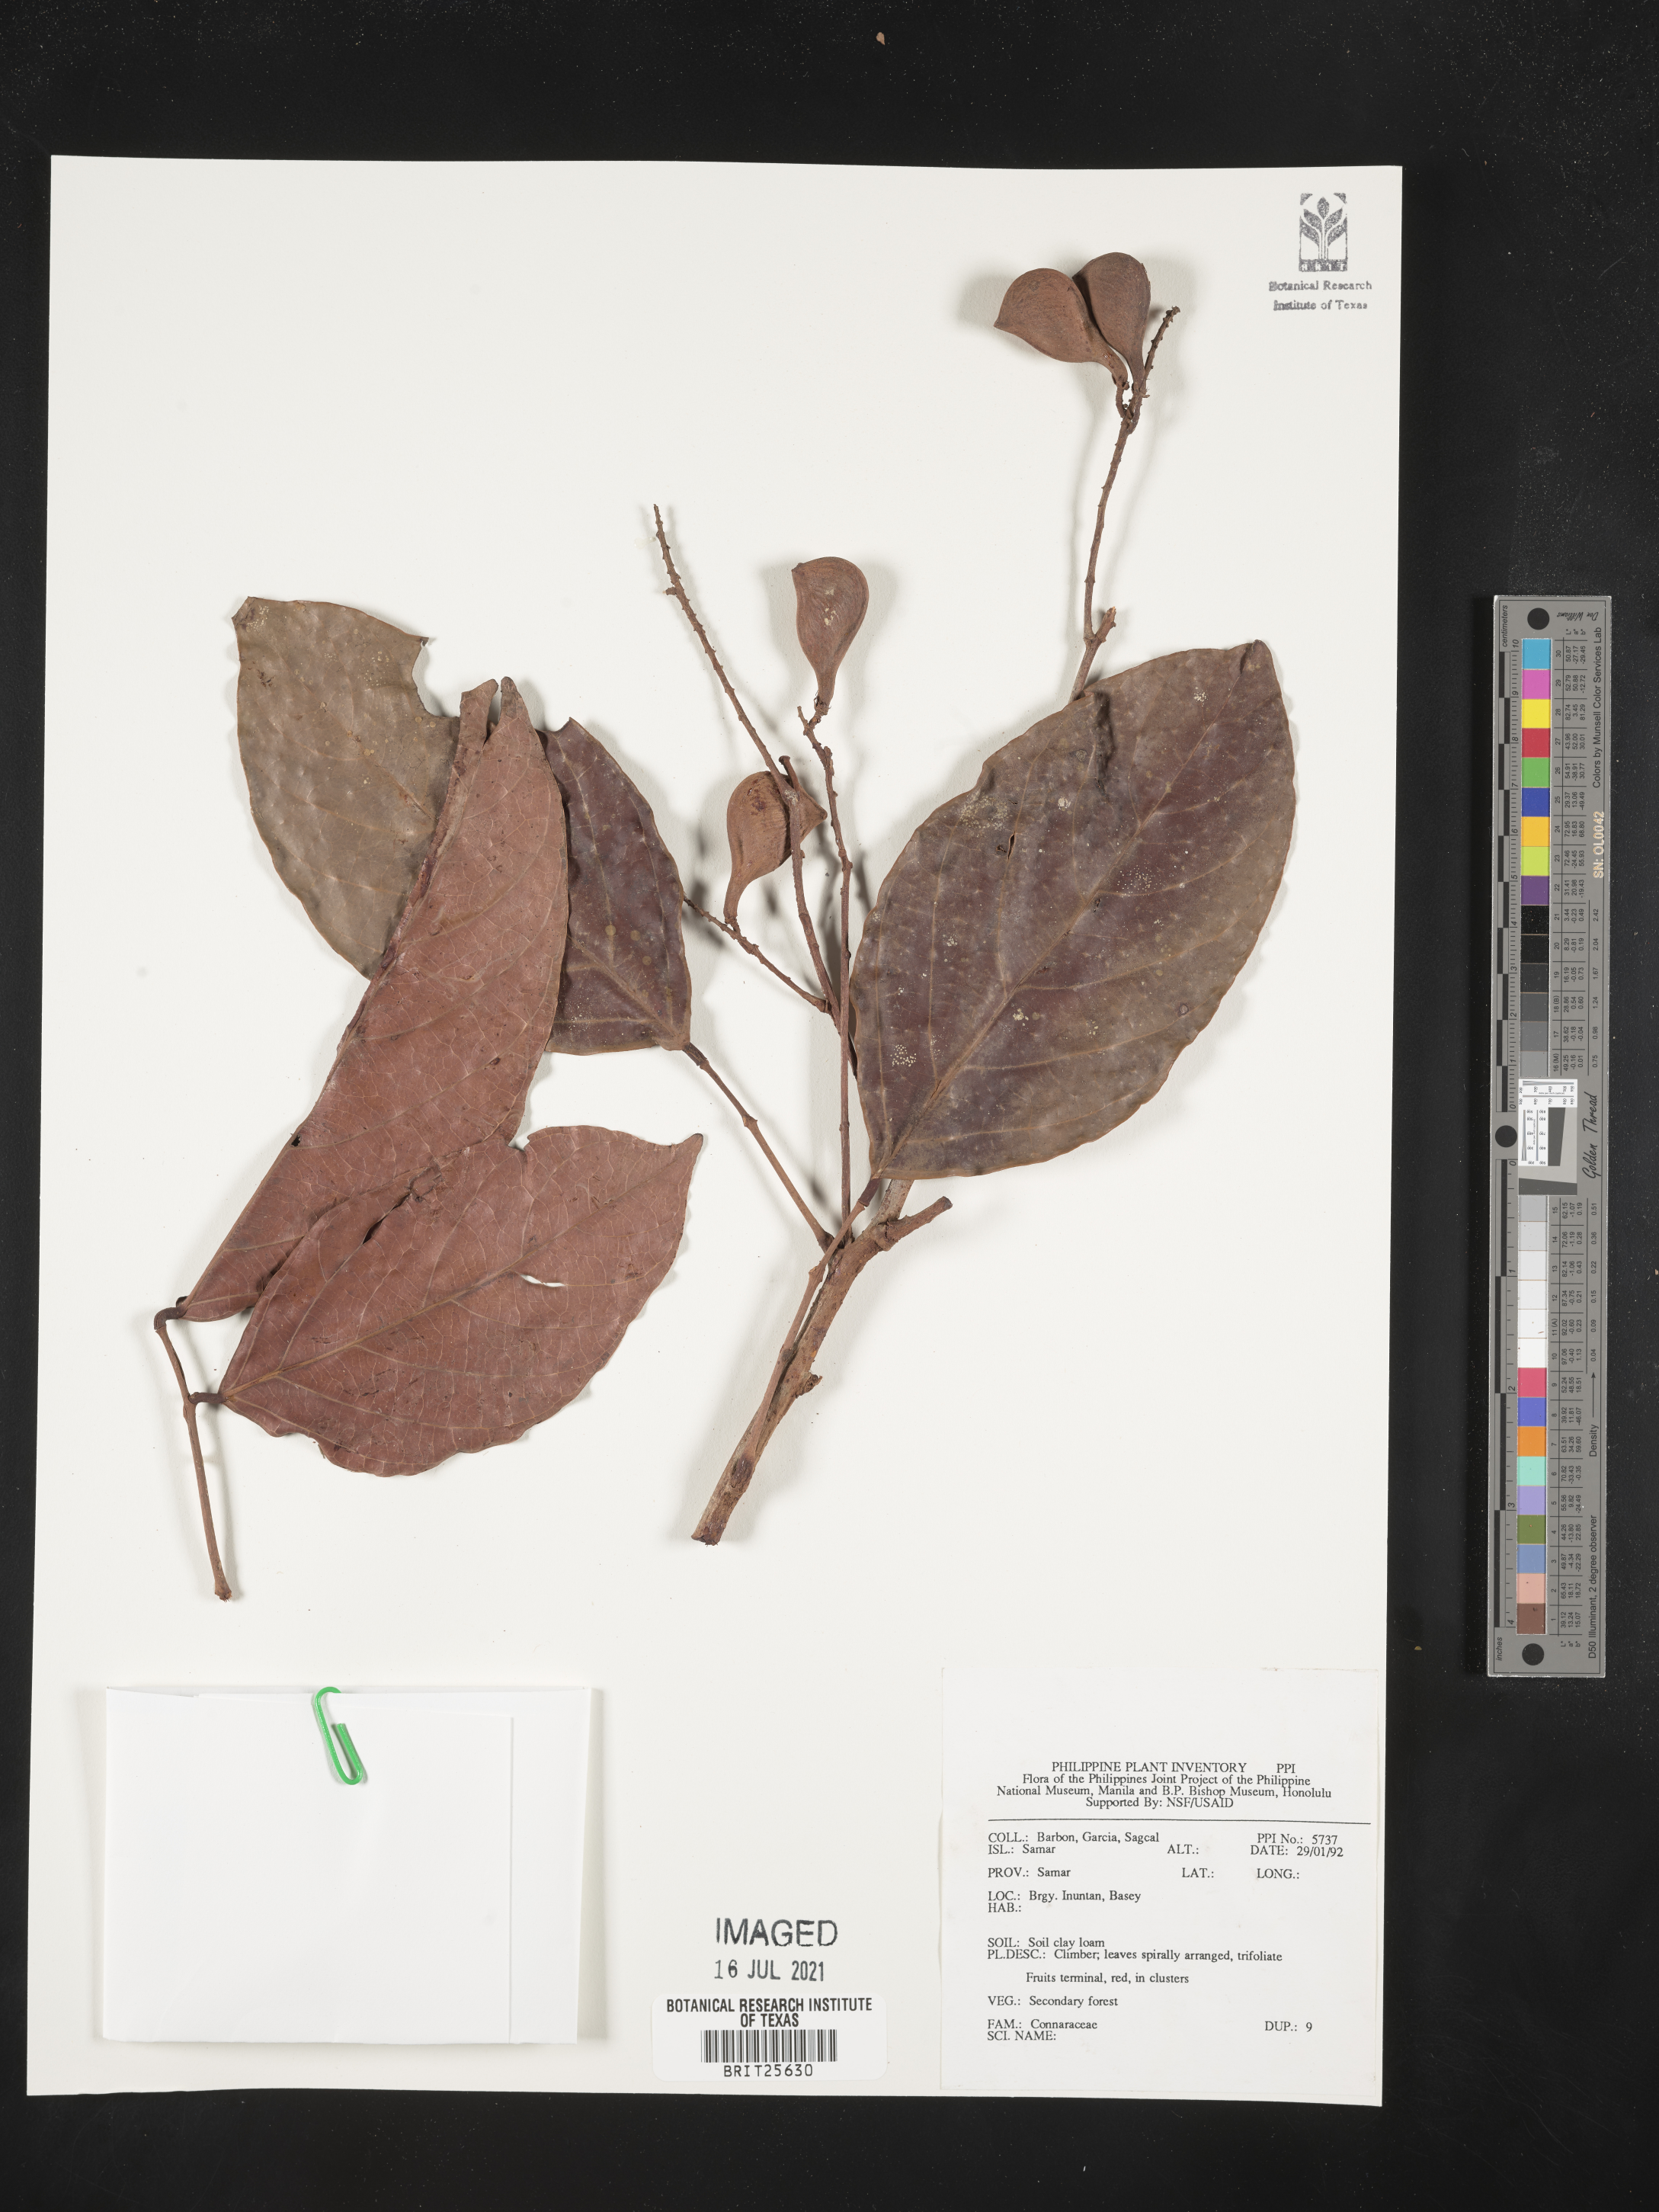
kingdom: Plantae
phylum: Tracheophyta
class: Magnoliopsida
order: Oxalidales
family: Connaraceae
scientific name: Connaraceae
